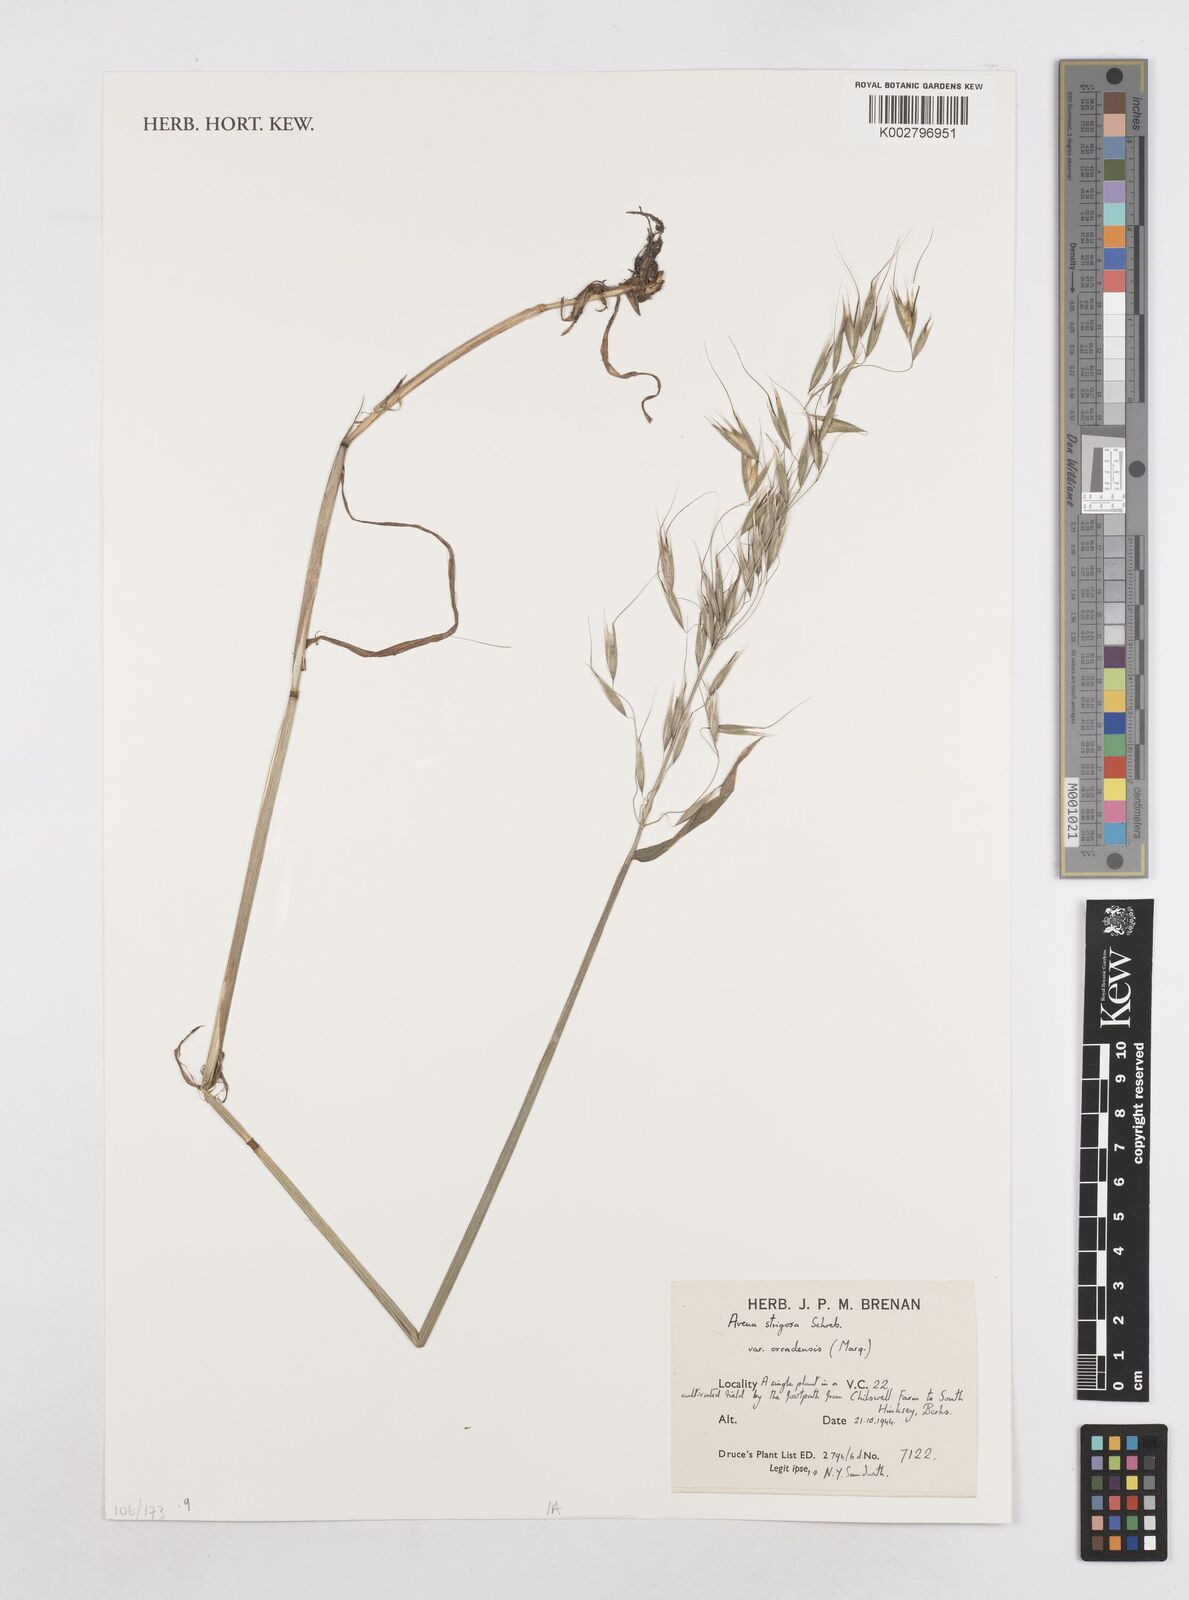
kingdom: Plantae
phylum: Tracheophyta
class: Liliopsida
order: Poales
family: Poaceae
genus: Avena
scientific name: Avena strigosa
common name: Bristle oat
